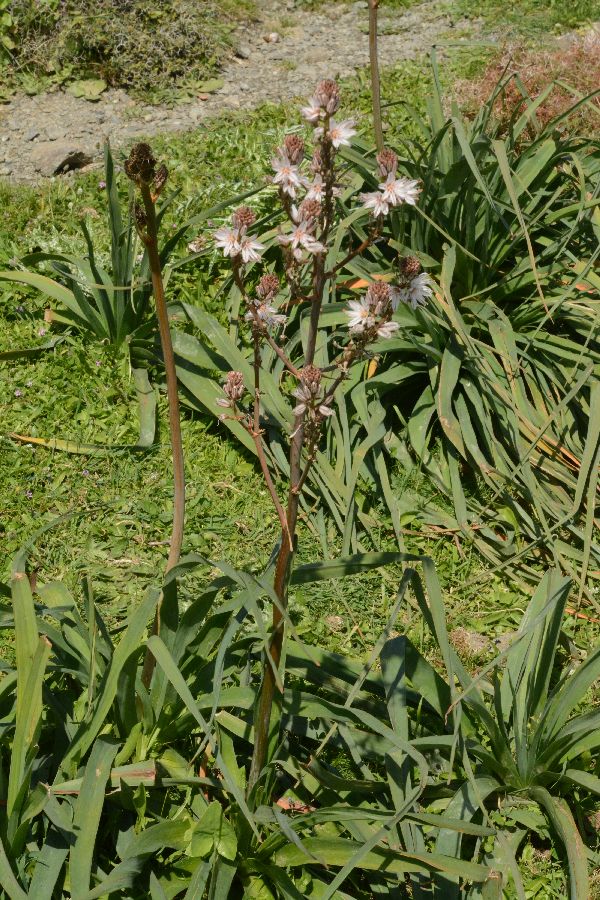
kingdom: Plantae
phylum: Tracheophyta
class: Liliopsida
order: Asparagales
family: Asphodelaceae
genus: Asphodelus
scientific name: Asphodelus ramosus
